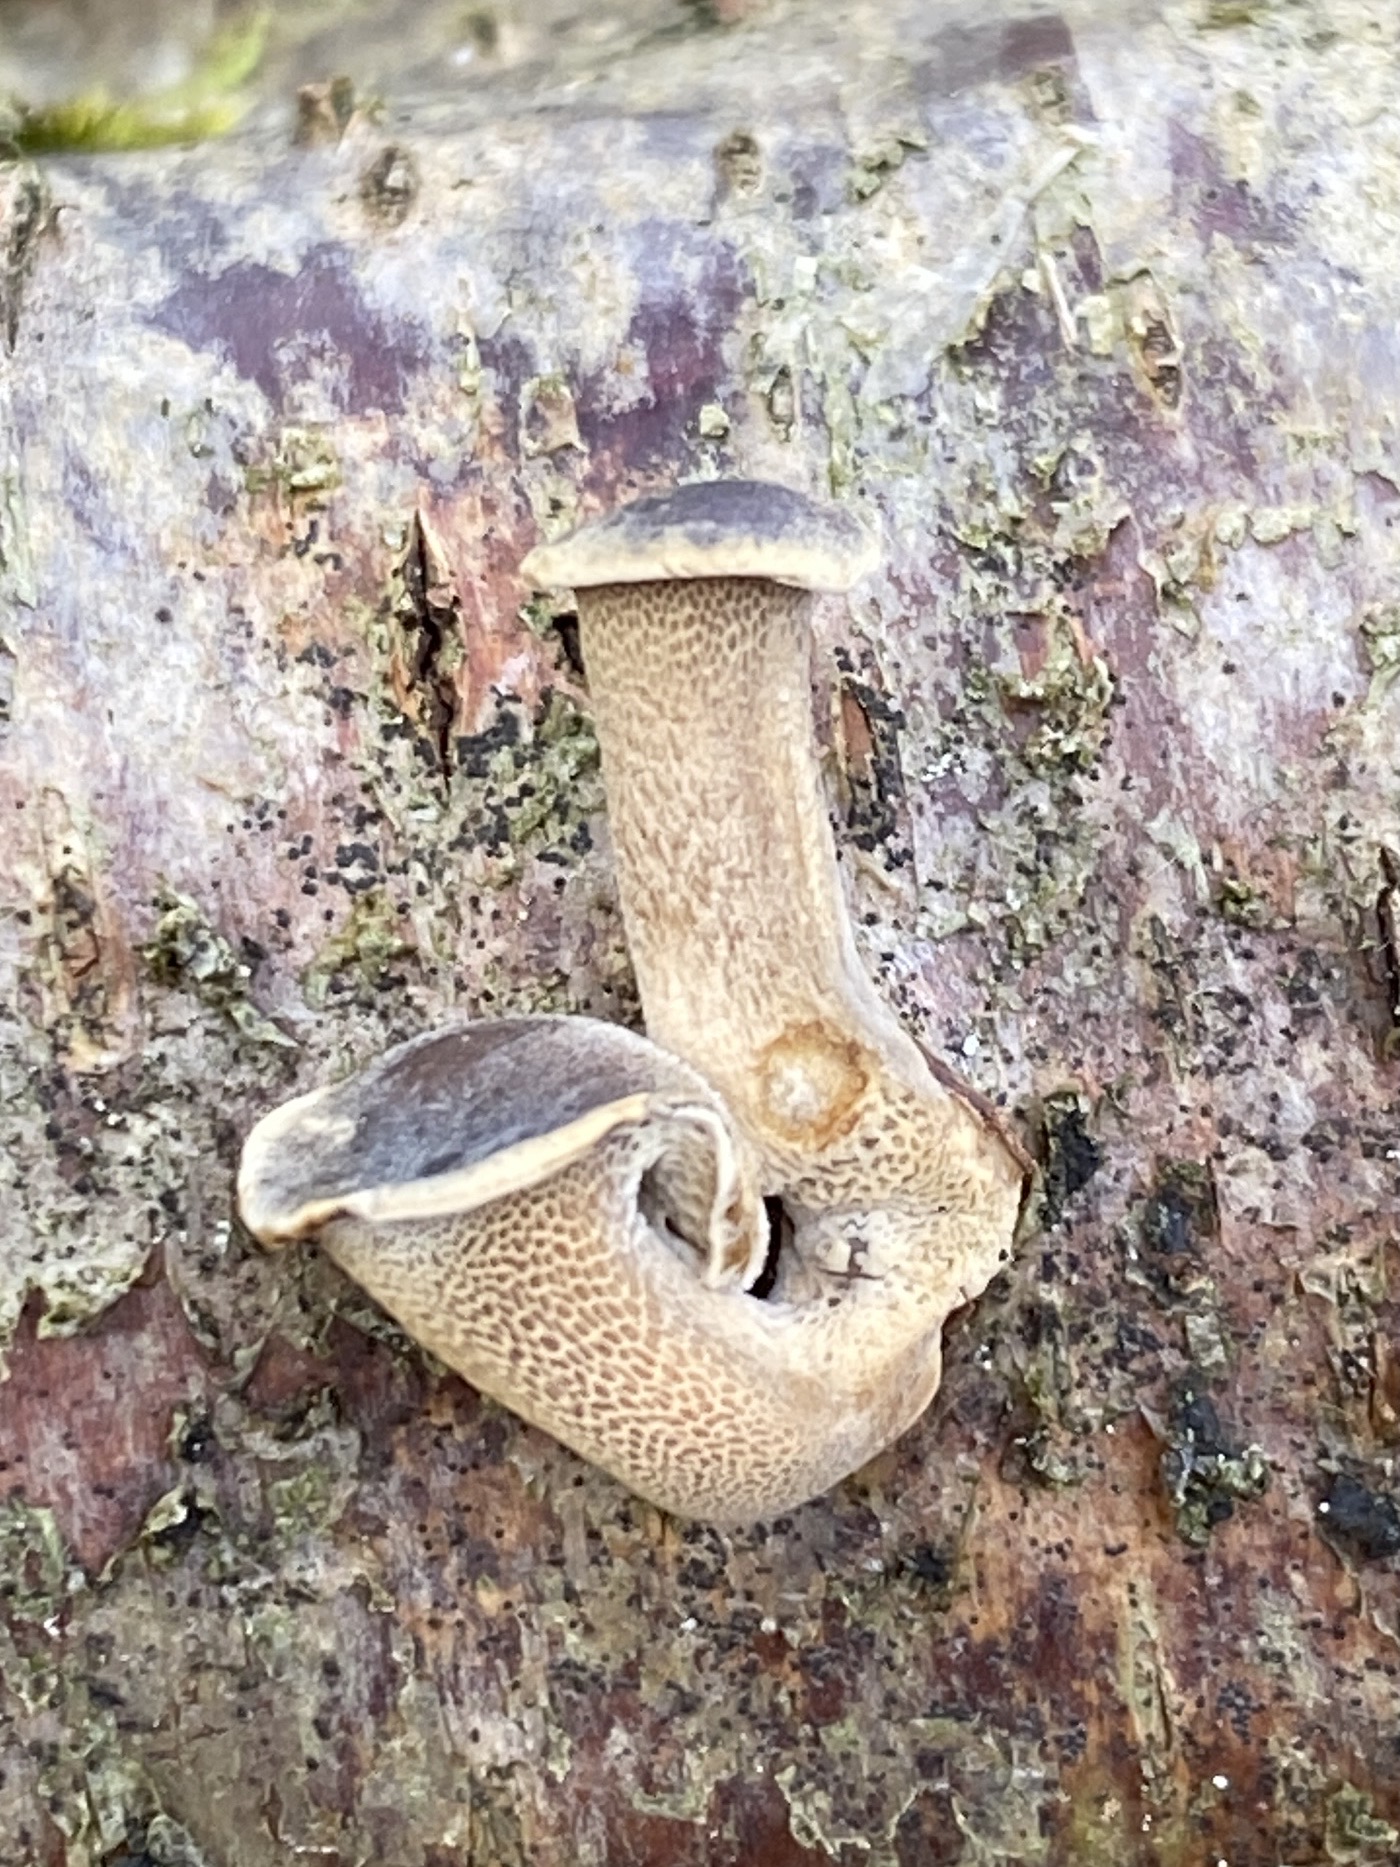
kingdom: Fungi
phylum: Basidiomycota
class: Agaricomycetes
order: Polyporales
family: Polyporaceae
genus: Lentinus
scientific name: Lentinus brumalis
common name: vinter-stilkporesvamp
